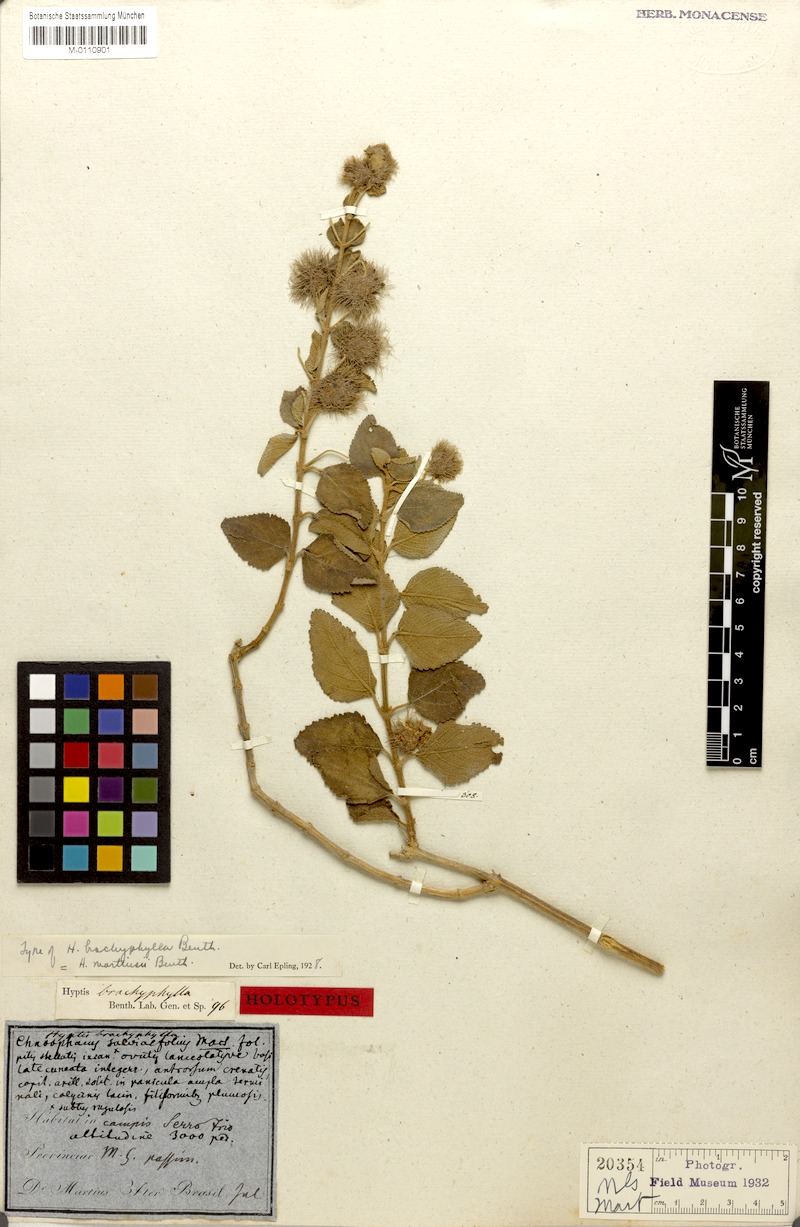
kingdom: Plantae
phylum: Tracheophyta
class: Magnoliopsida
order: Lamiales
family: Lamiaceae
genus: Medusantha
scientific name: Medusantha martiusii
